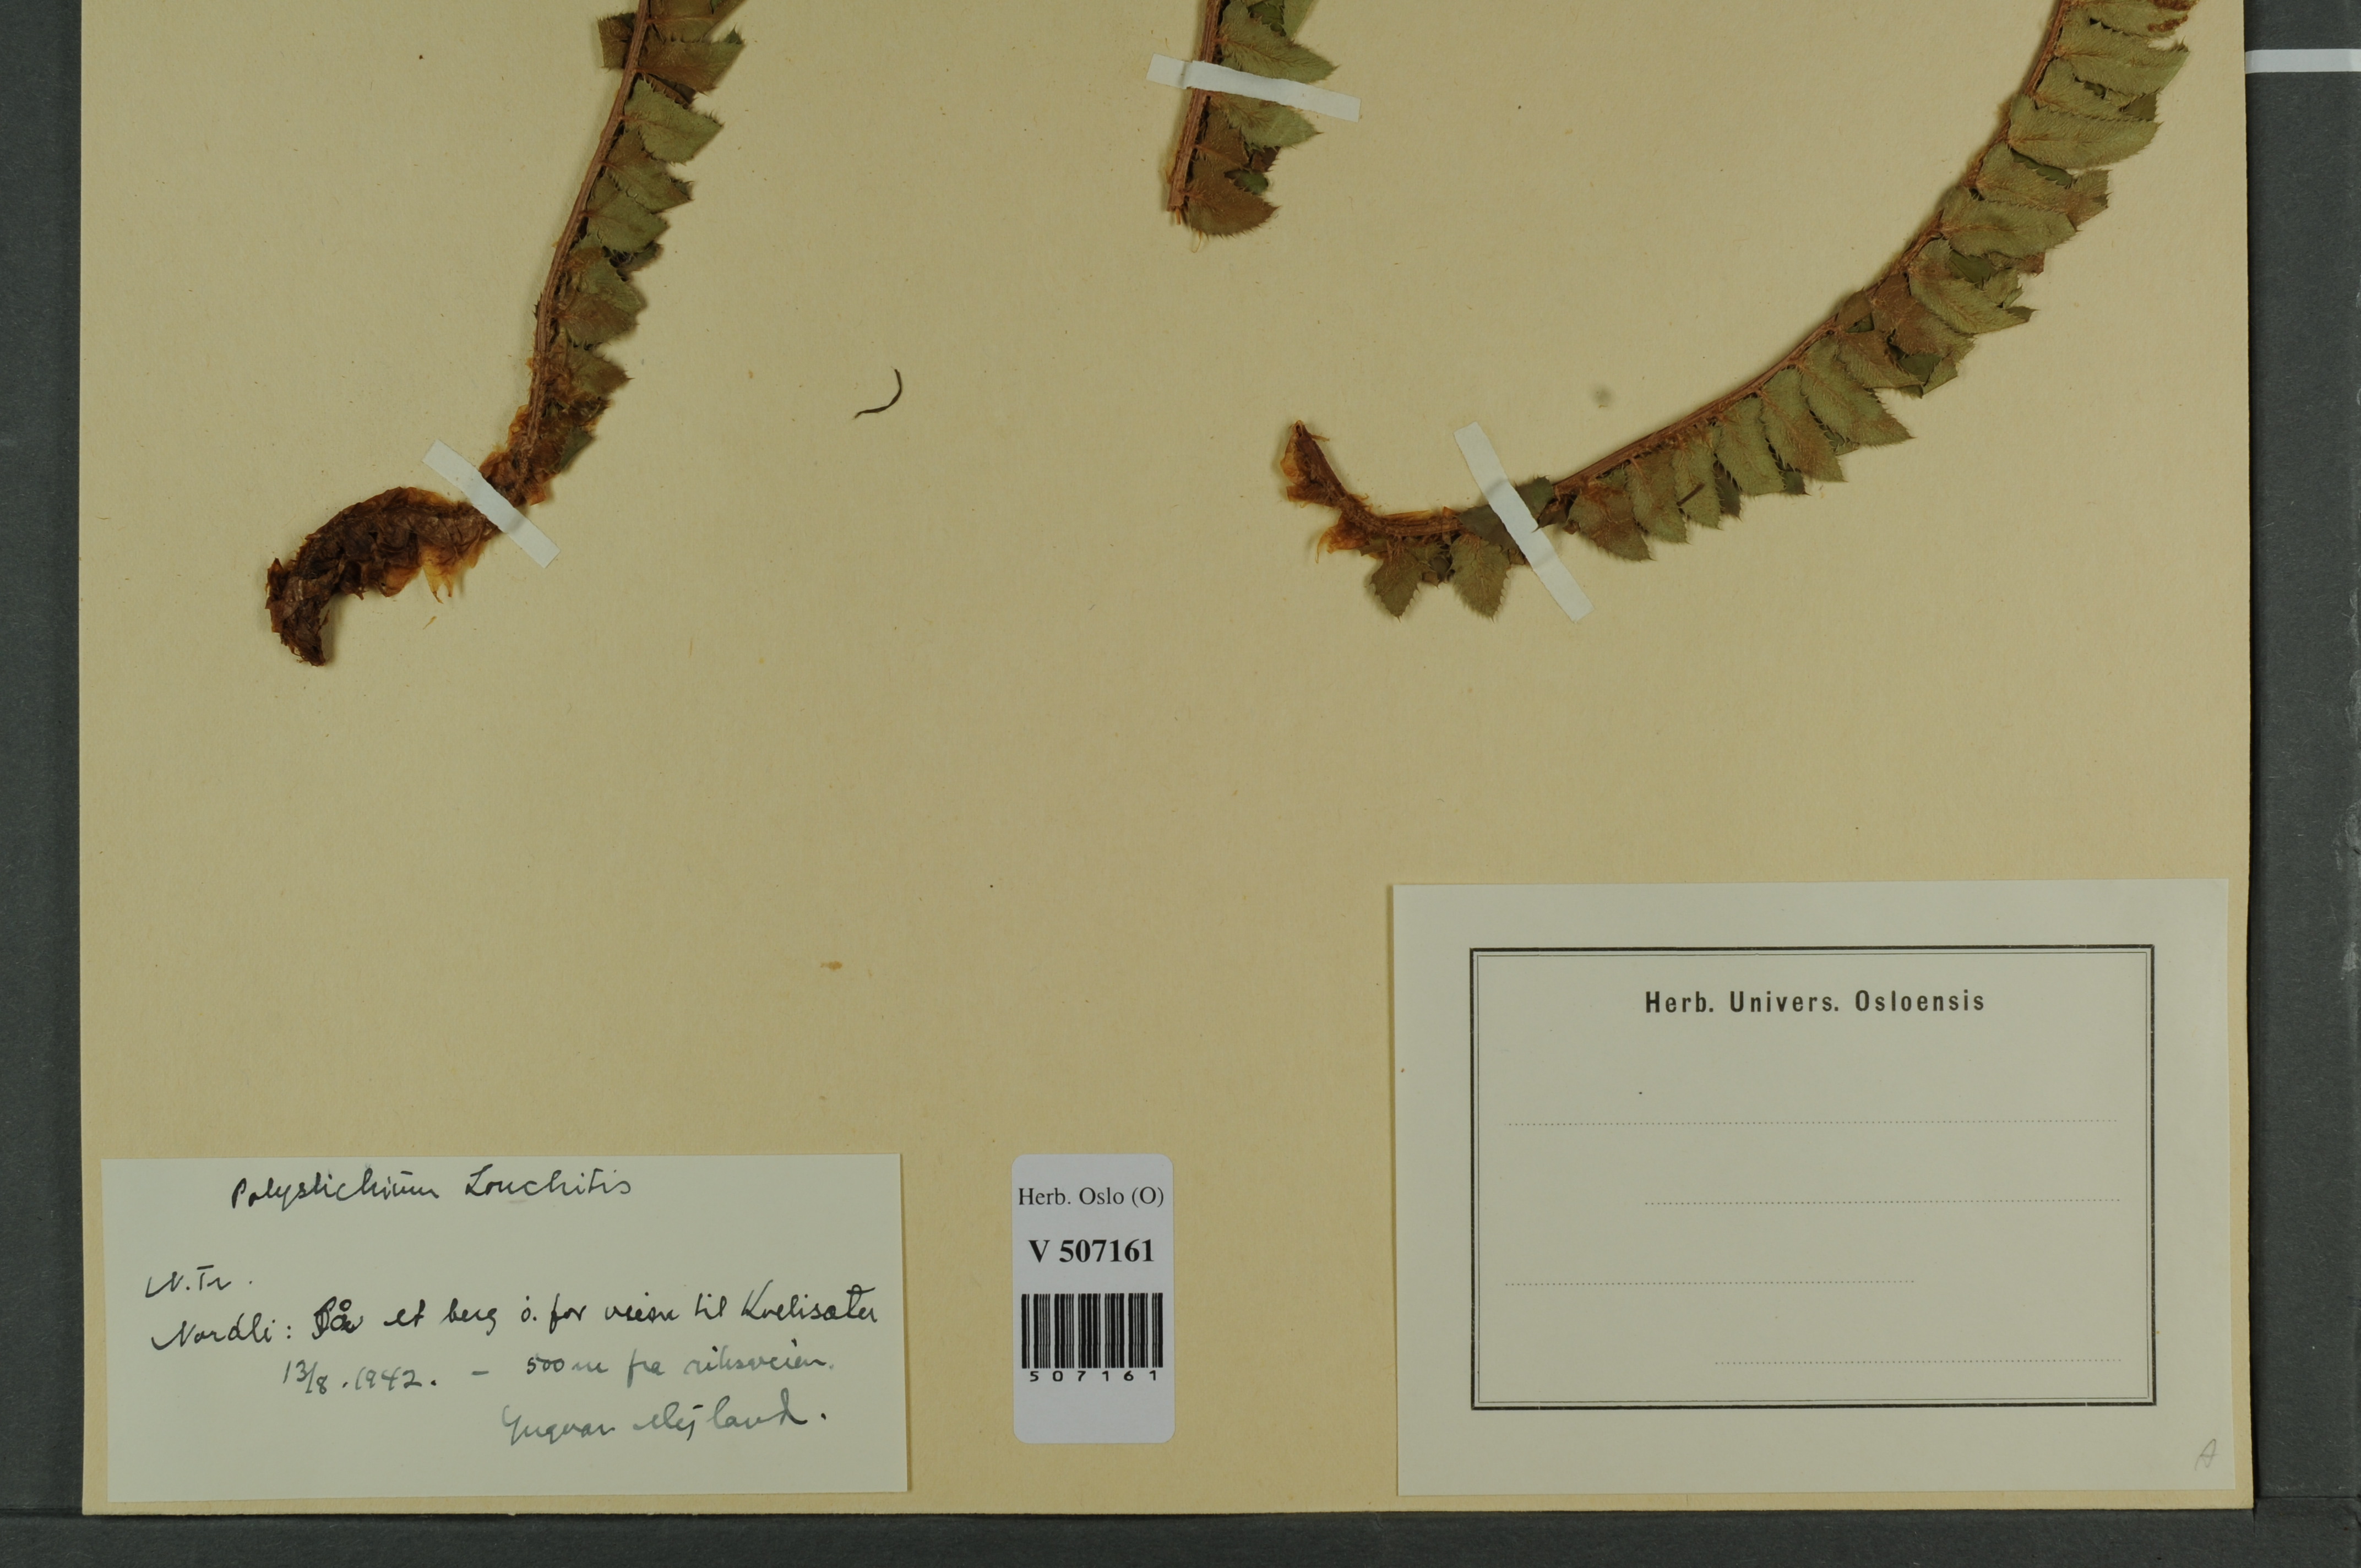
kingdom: Plantae
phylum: Tracheophyta
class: Polypodiopsida
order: Polypodiales
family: Dryopteridaceae
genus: Polystichum
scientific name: Polystichum lonchitis
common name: Holly fern
